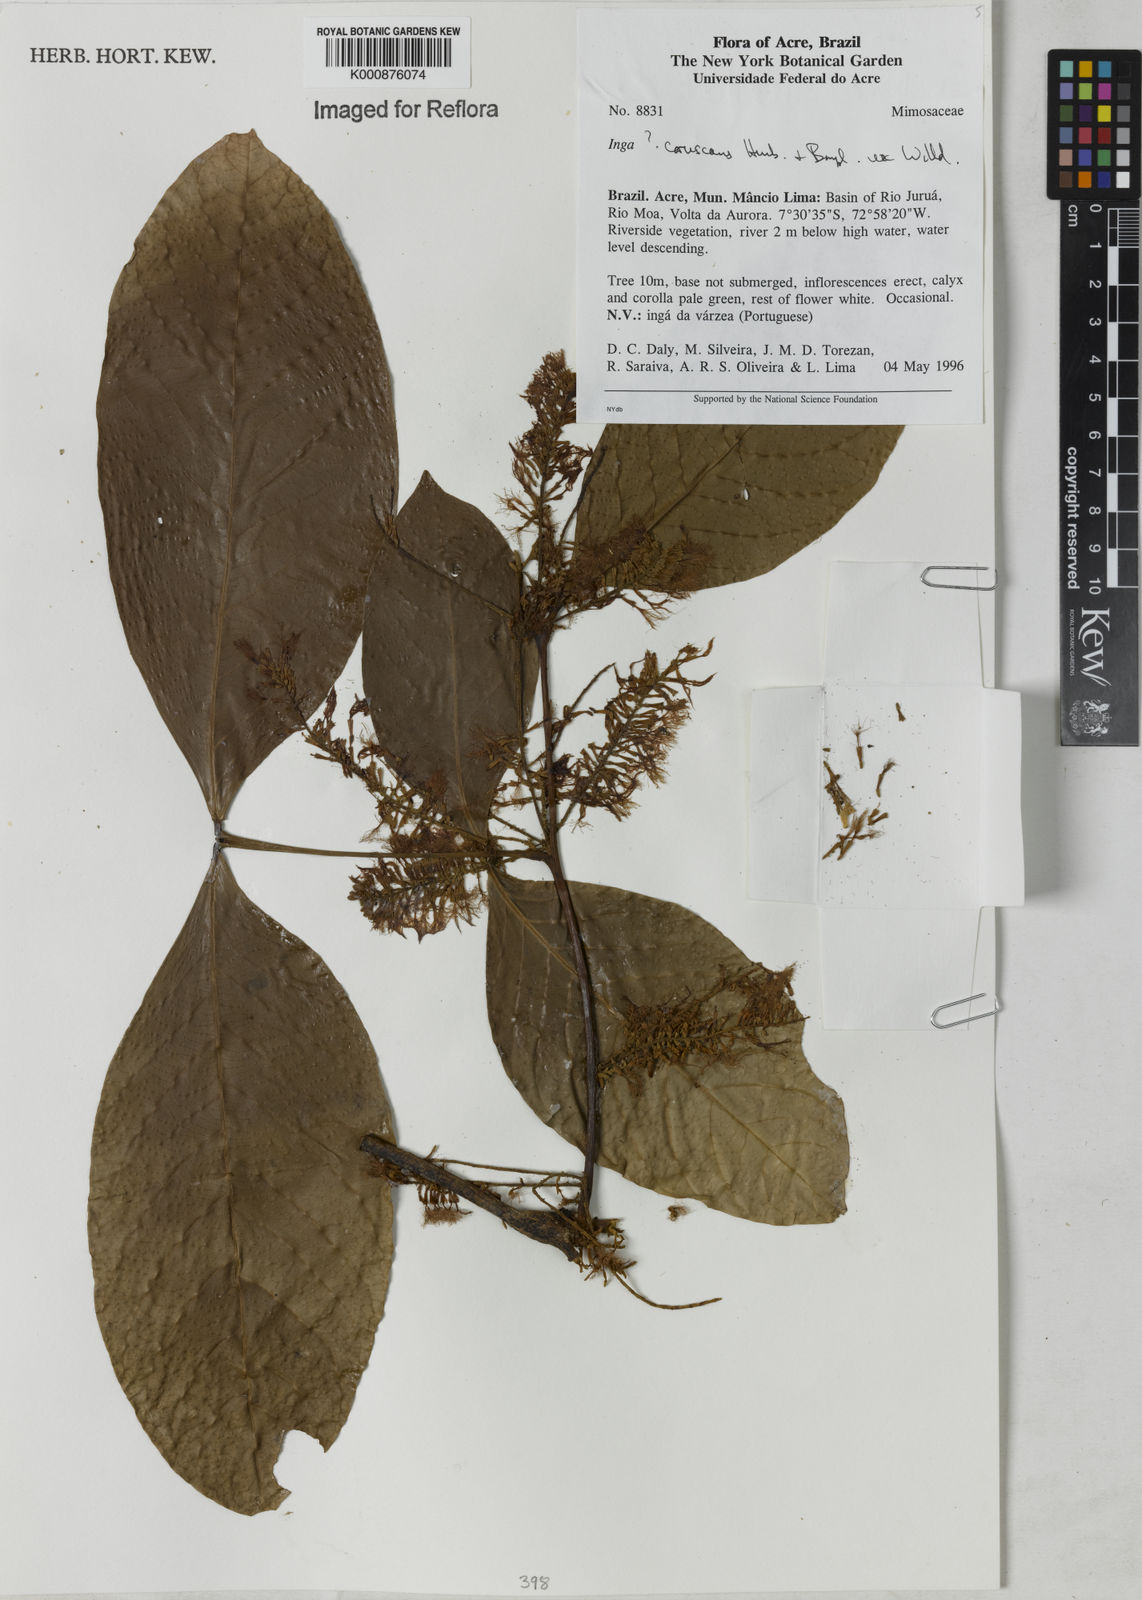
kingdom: Plantae
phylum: Tracheophyta
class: Magnoliopsida
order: Fabales
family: Fabaceae
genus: Inga
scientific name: Inga coruscans
